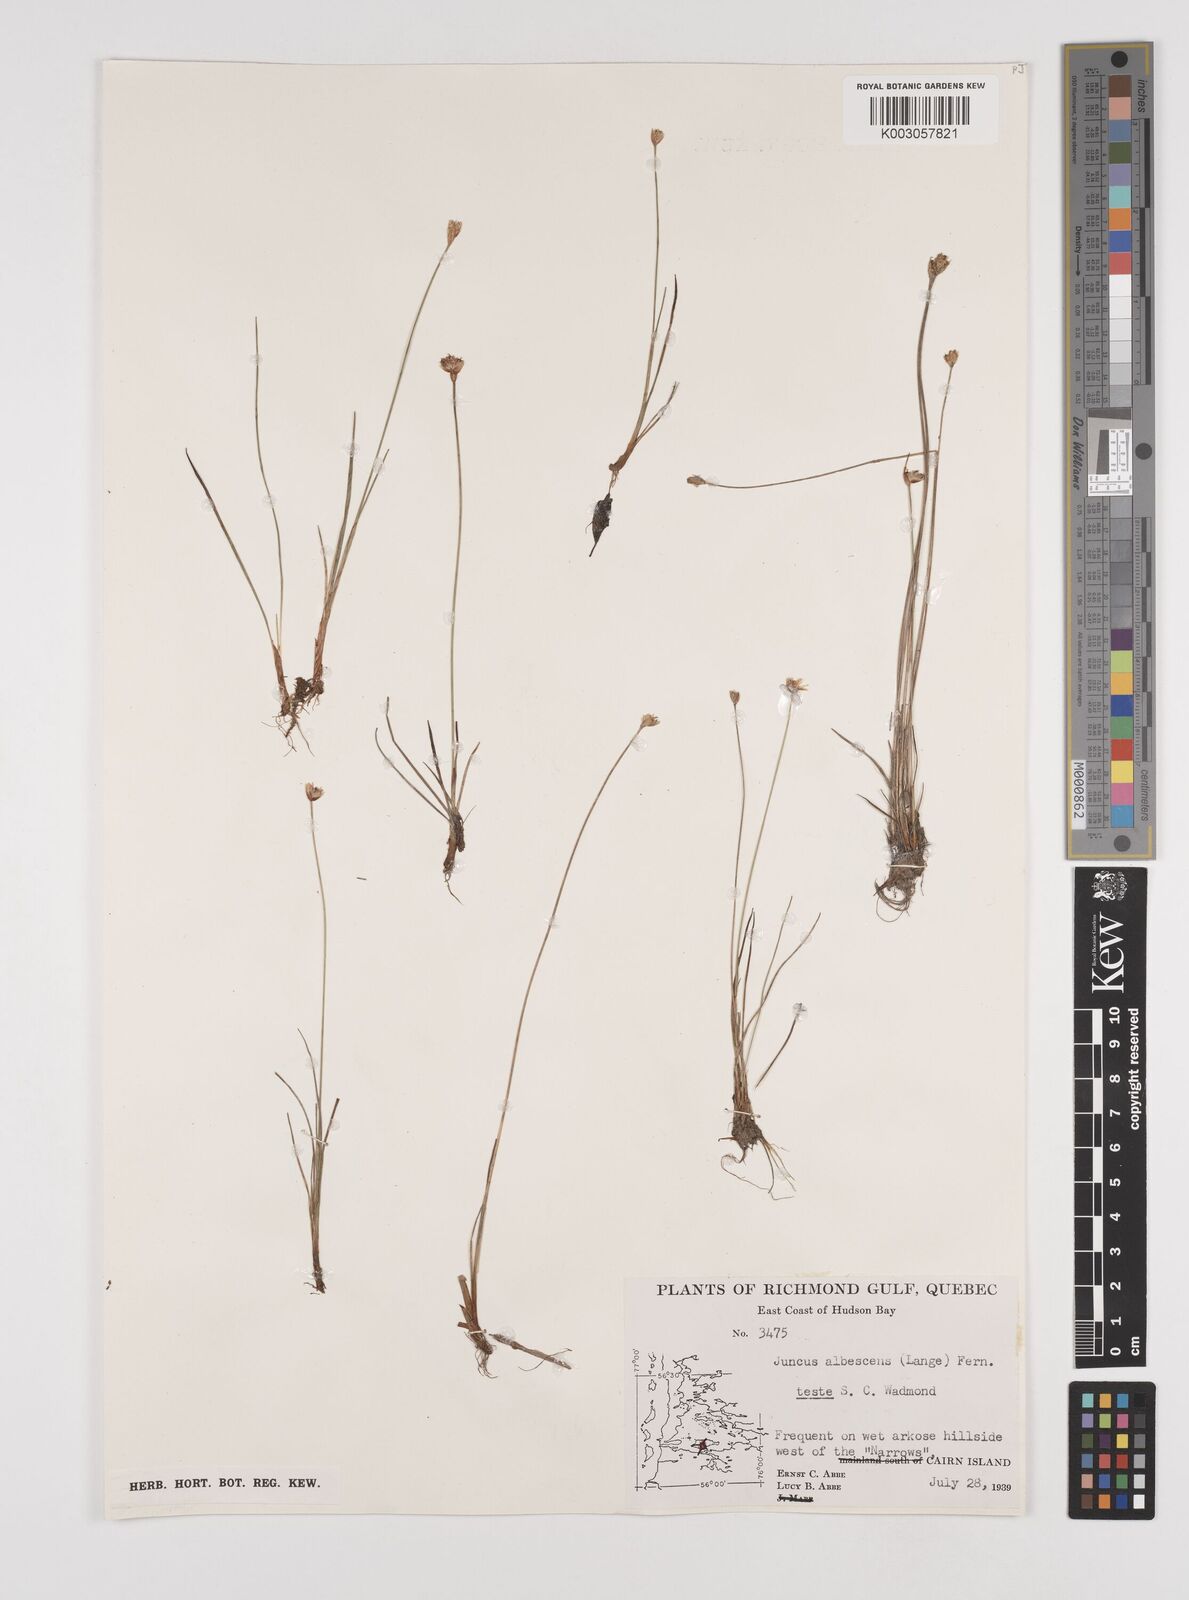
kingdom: Plantae
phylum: Tracheophyta
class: Liliopsida
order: Poales
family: Juncaceae
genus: Juncus
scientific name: Juncus albescens
